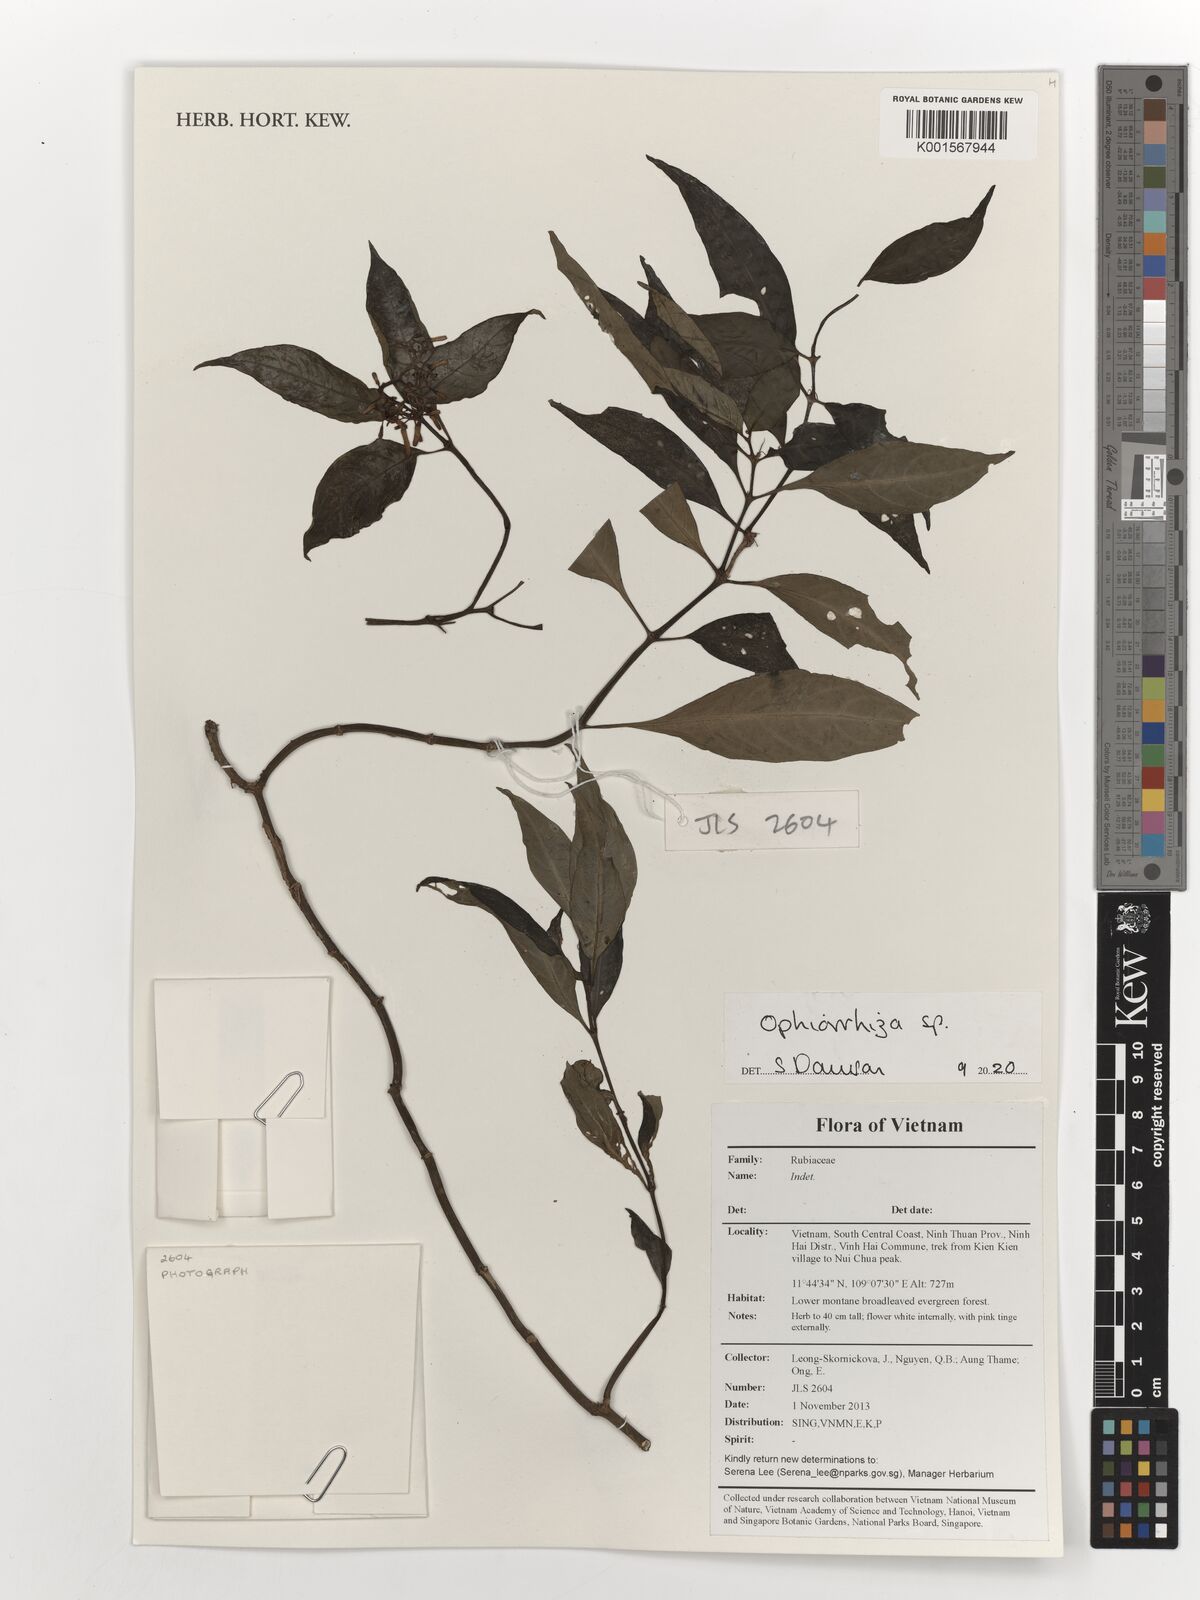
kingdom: Plantae
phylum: Tracheophyta
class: Magnoliopsida
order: Gentianales
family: Rubiaceae
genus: Ophiorrhiza
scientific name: Ophiorrhiza
